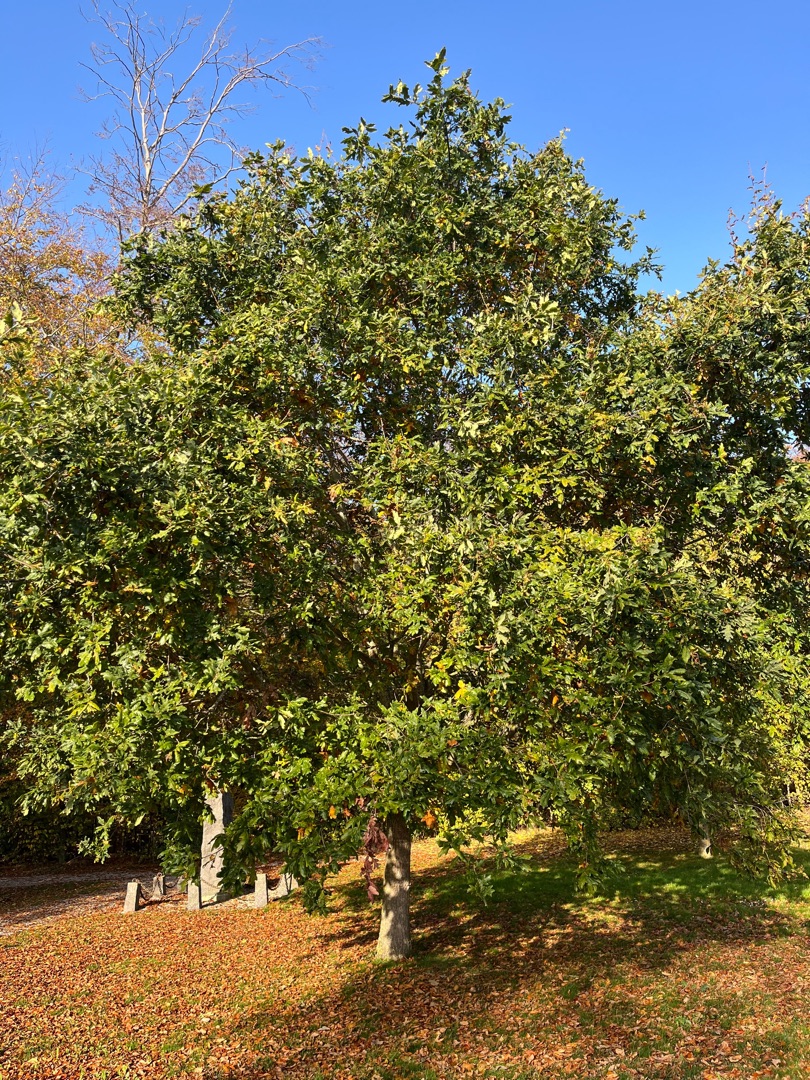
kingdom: Plantae
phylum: Tracheophyta
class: Magnoliopsida
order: Fagales
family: Fagaceae
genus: Quercus
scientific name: Quercus robur
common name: Stilk-eg/almindelig eg
